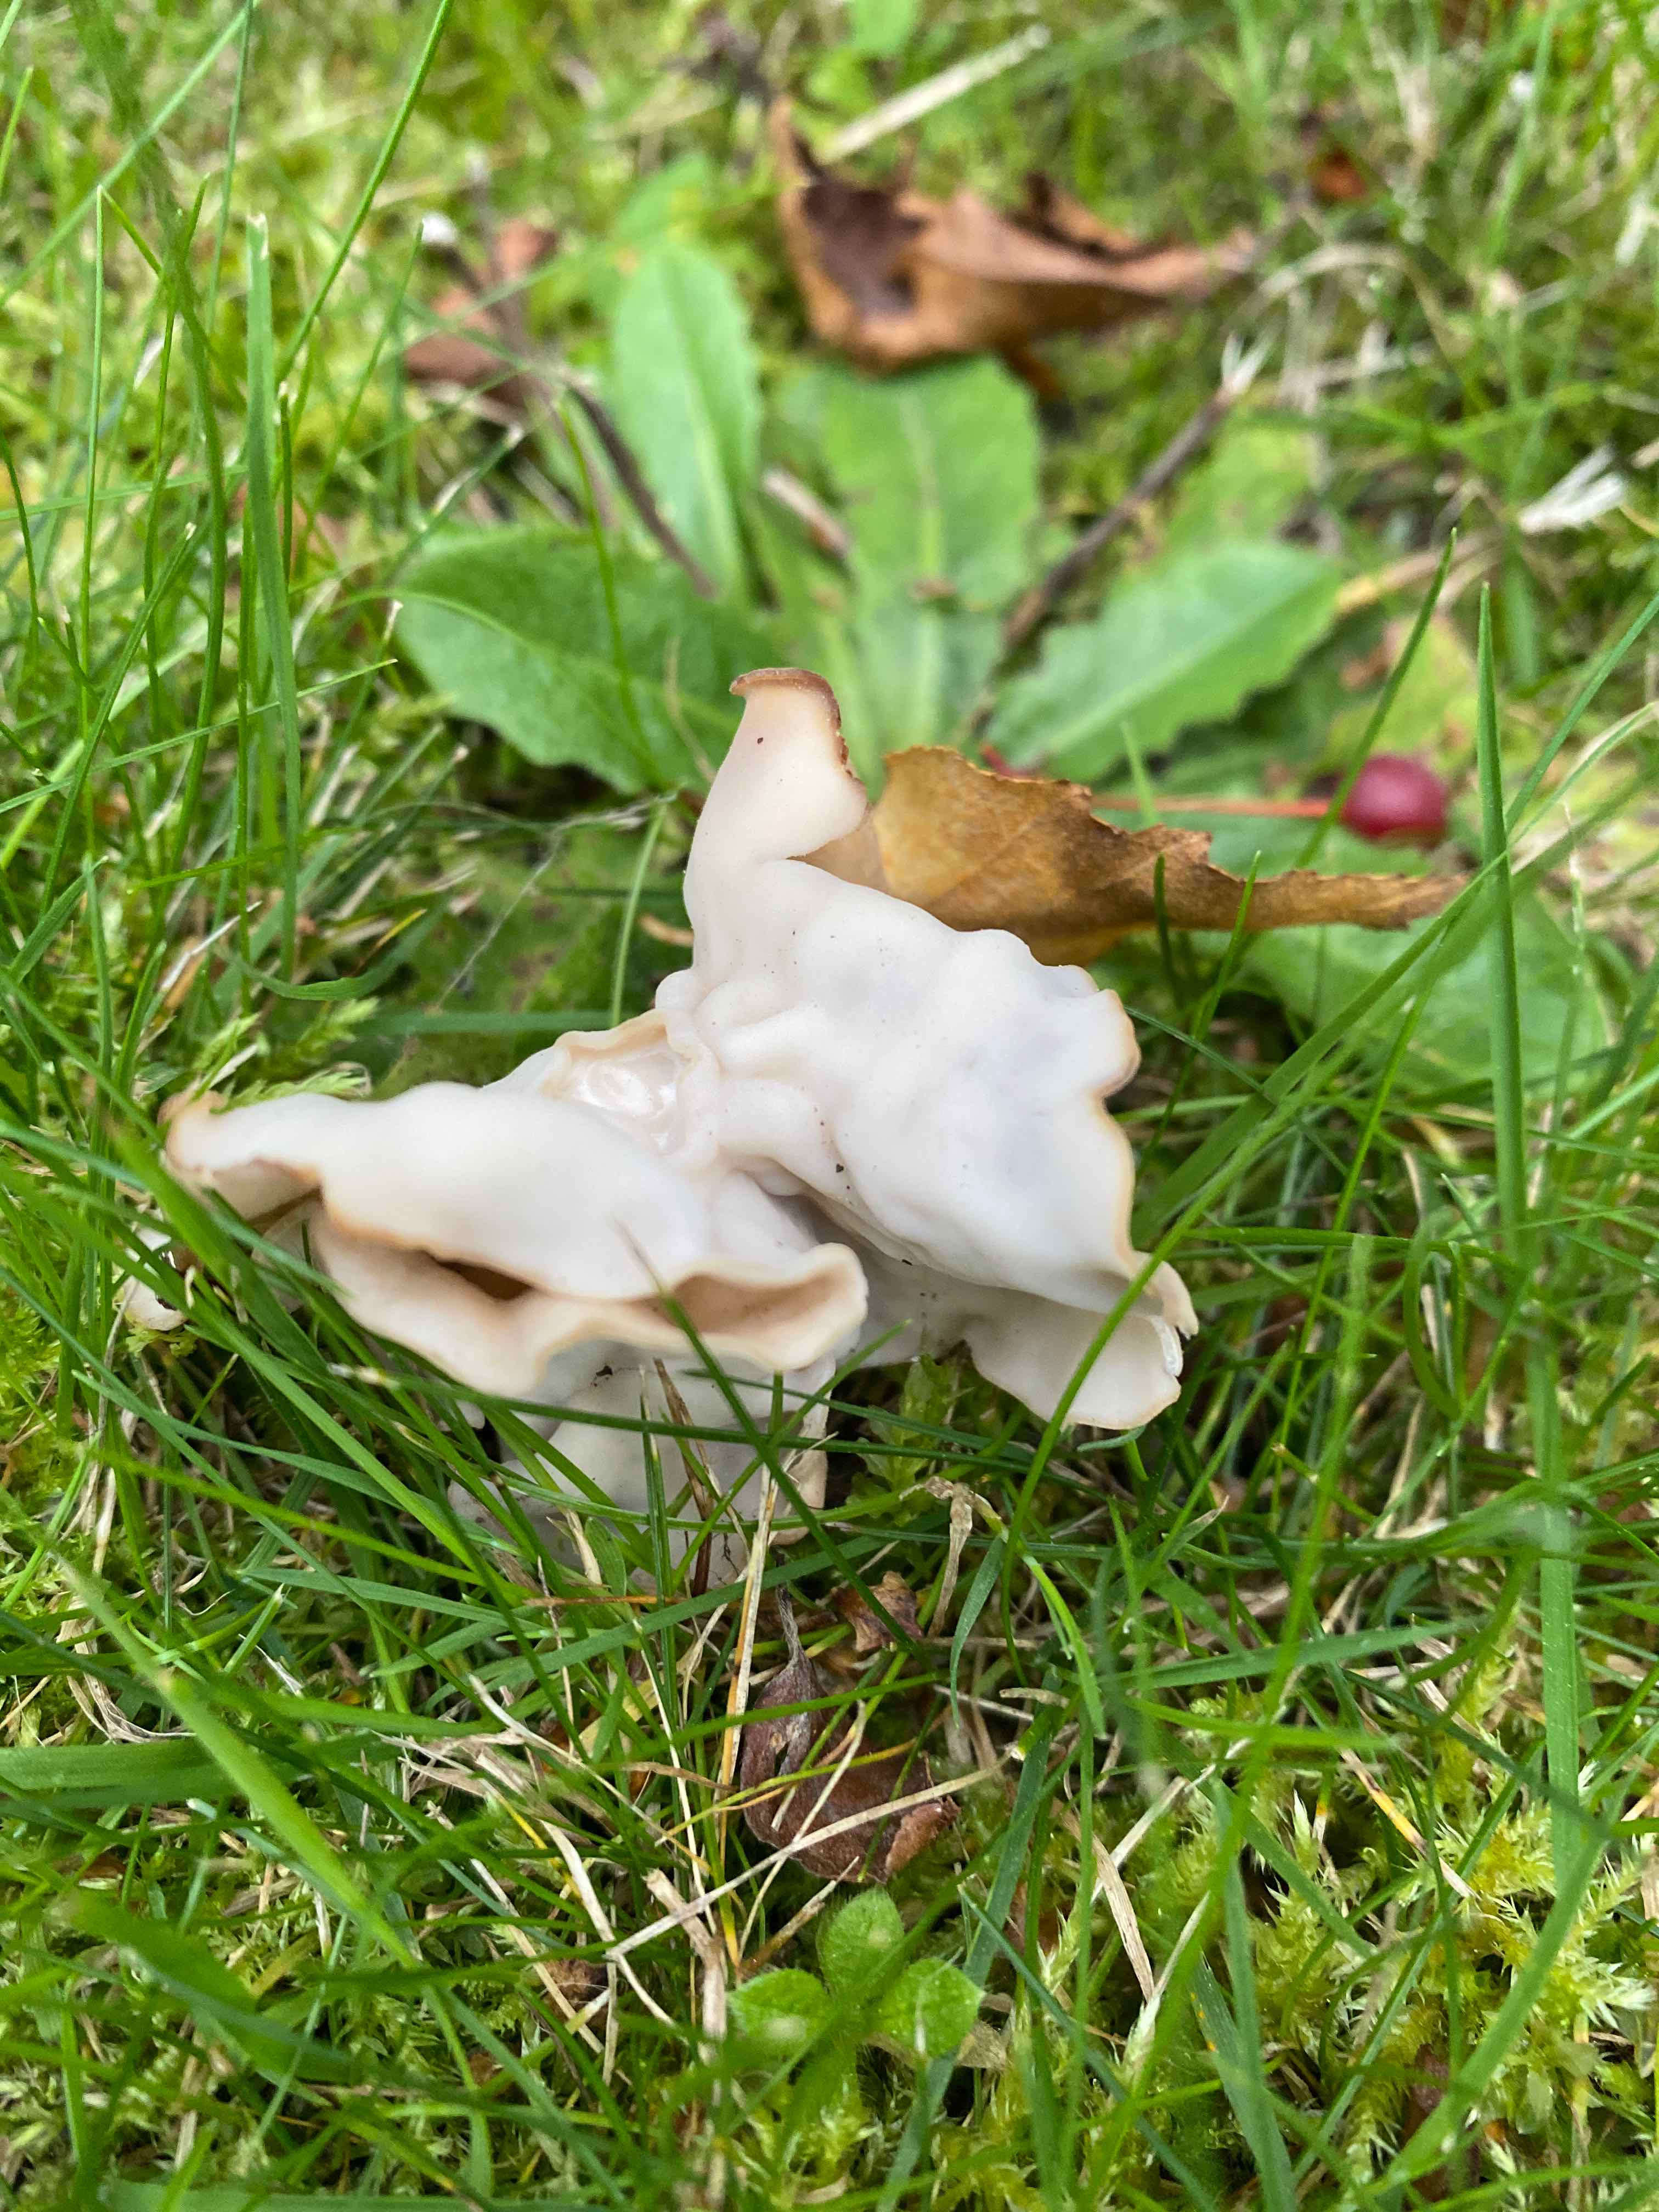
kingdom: Fungi
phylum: Ascomycota
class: Pezizomycetes
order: Pezizales
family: Helvellaceae
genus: Helvella
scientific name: Helvella crispa
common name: kruset foldhat
